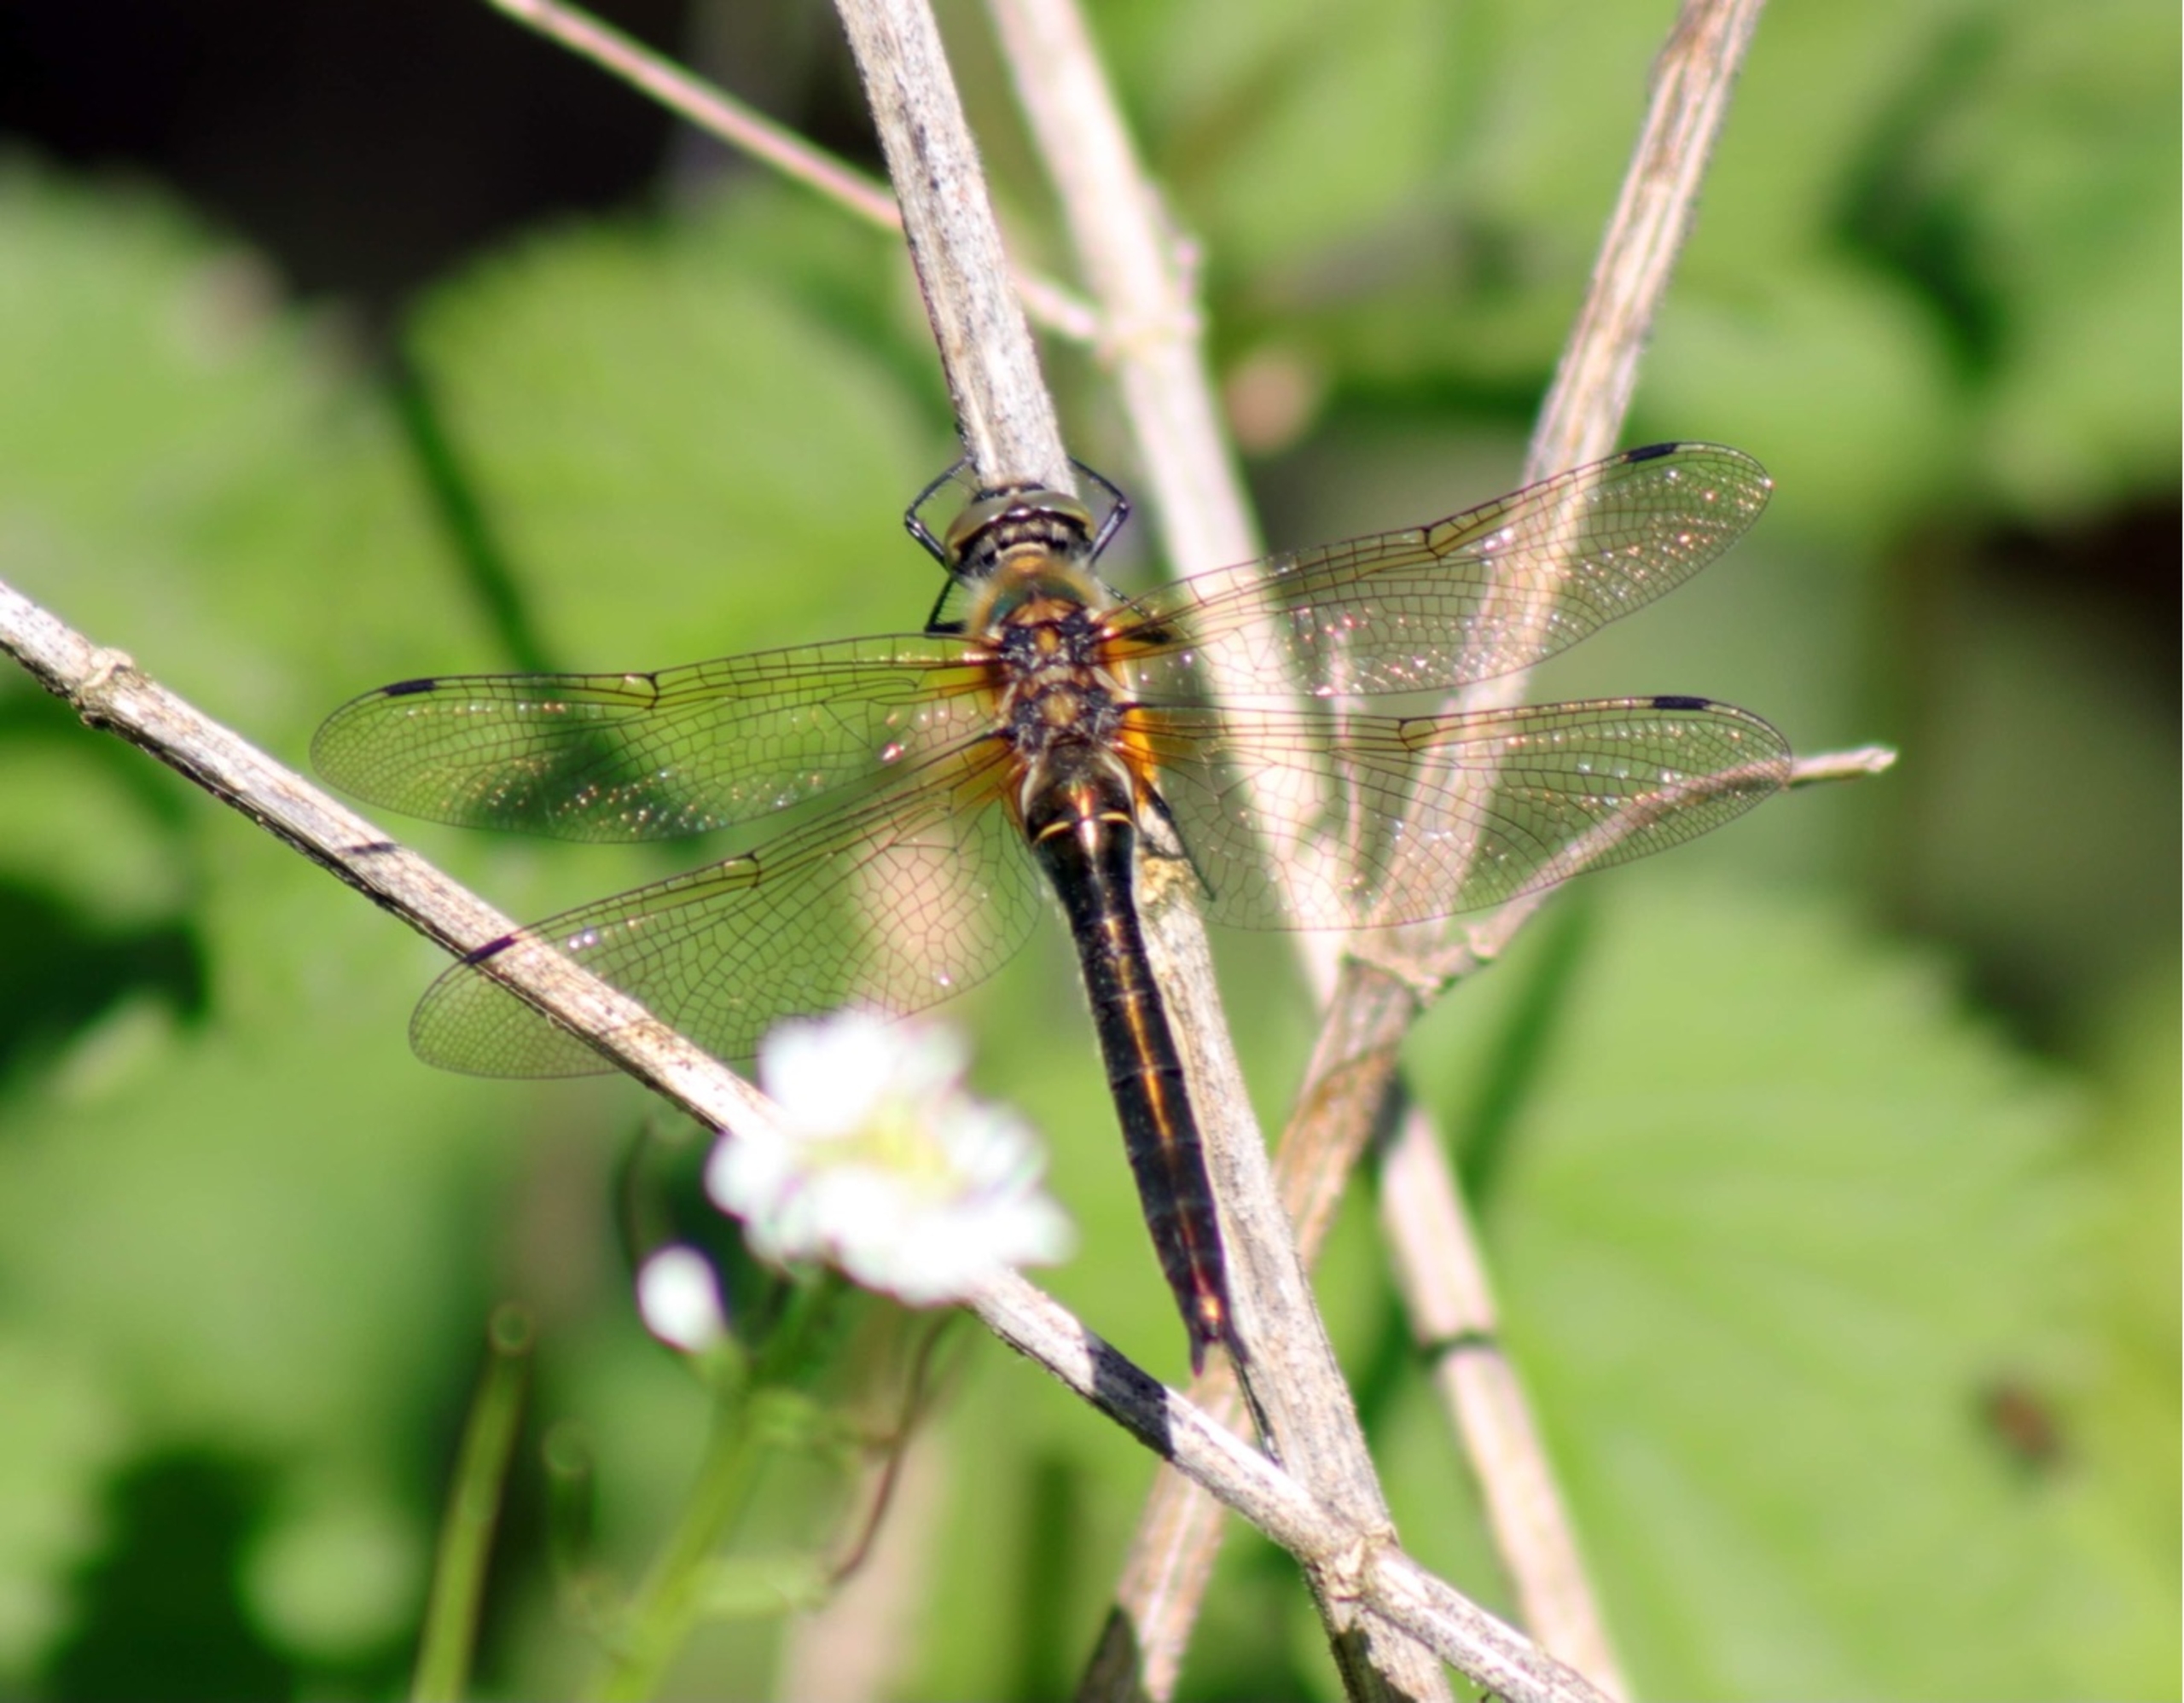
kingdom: Animalia
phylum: Arthropoda
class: Insecta
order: Odonata
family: Corduliidae
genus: Cordulia
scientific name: Cordulia aenea
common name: Grøn smaragdlibel
